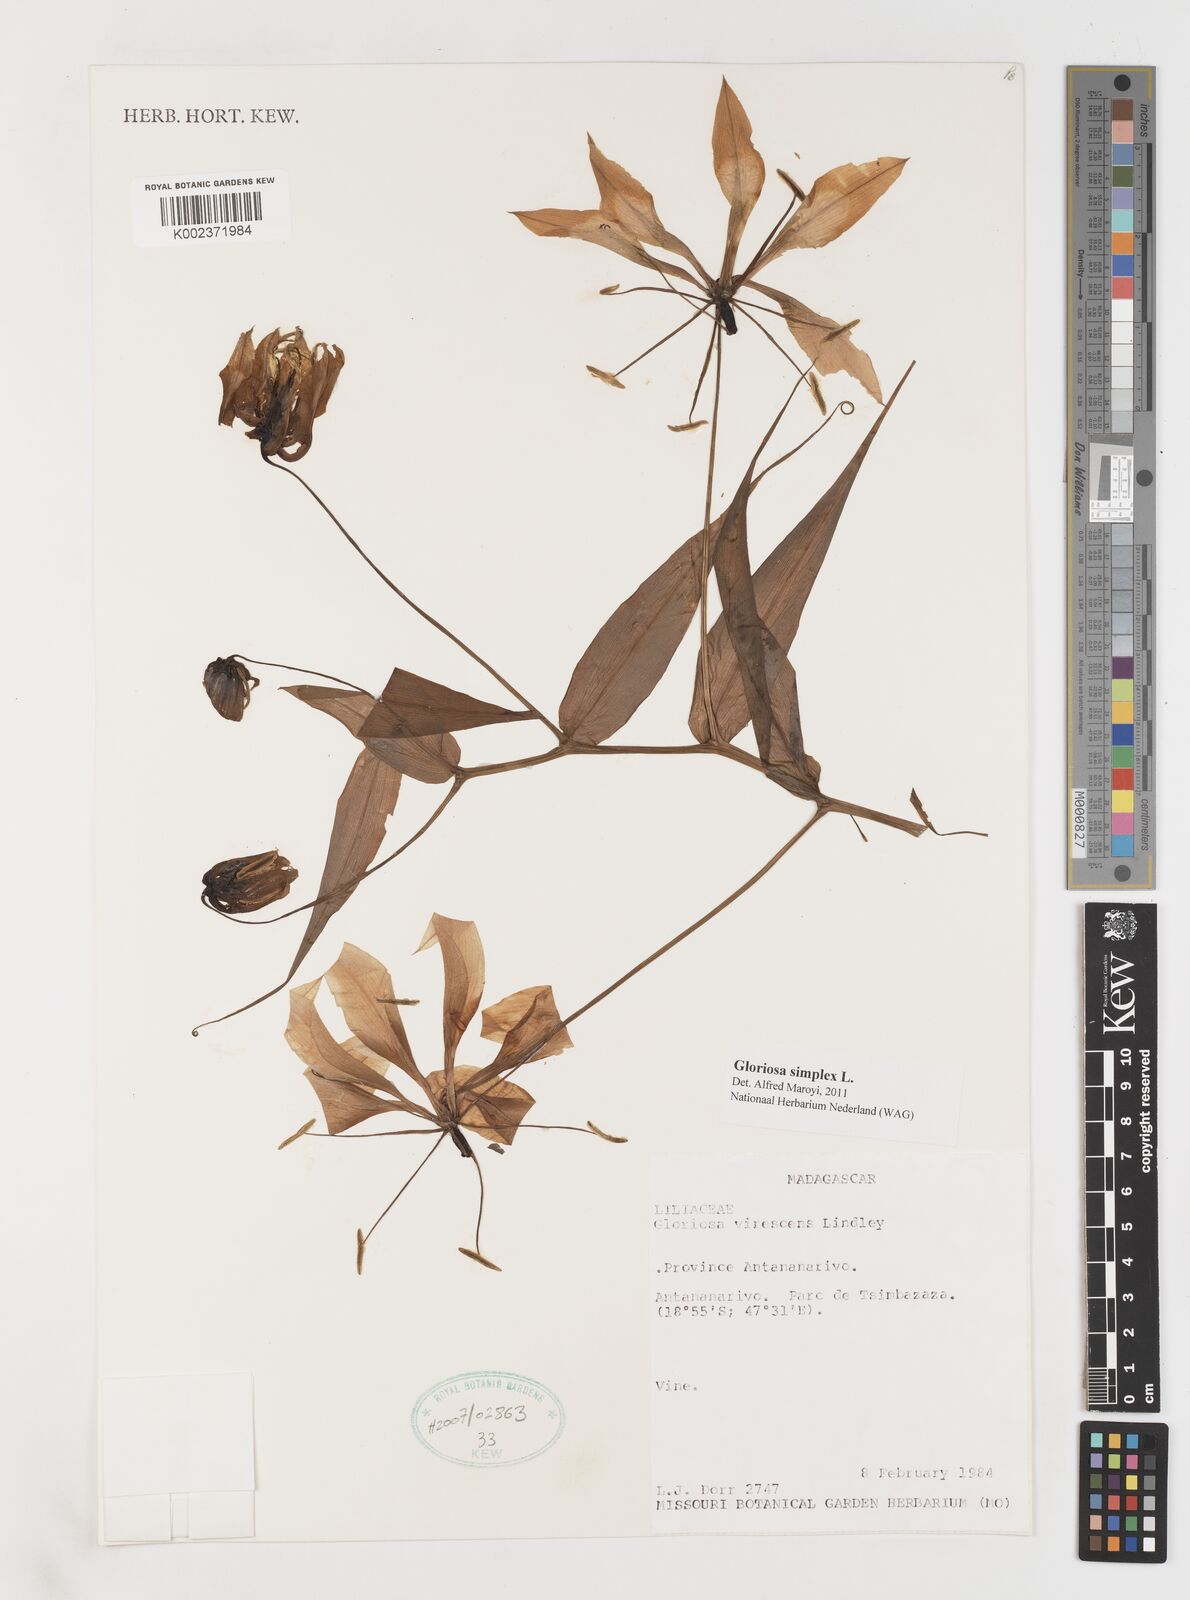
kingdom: Plantae
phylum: Tracheophyta
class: Liliopsida
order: Liliales
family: Colchicaceae
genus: Gloriosa
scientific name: Gloriosa simplex
